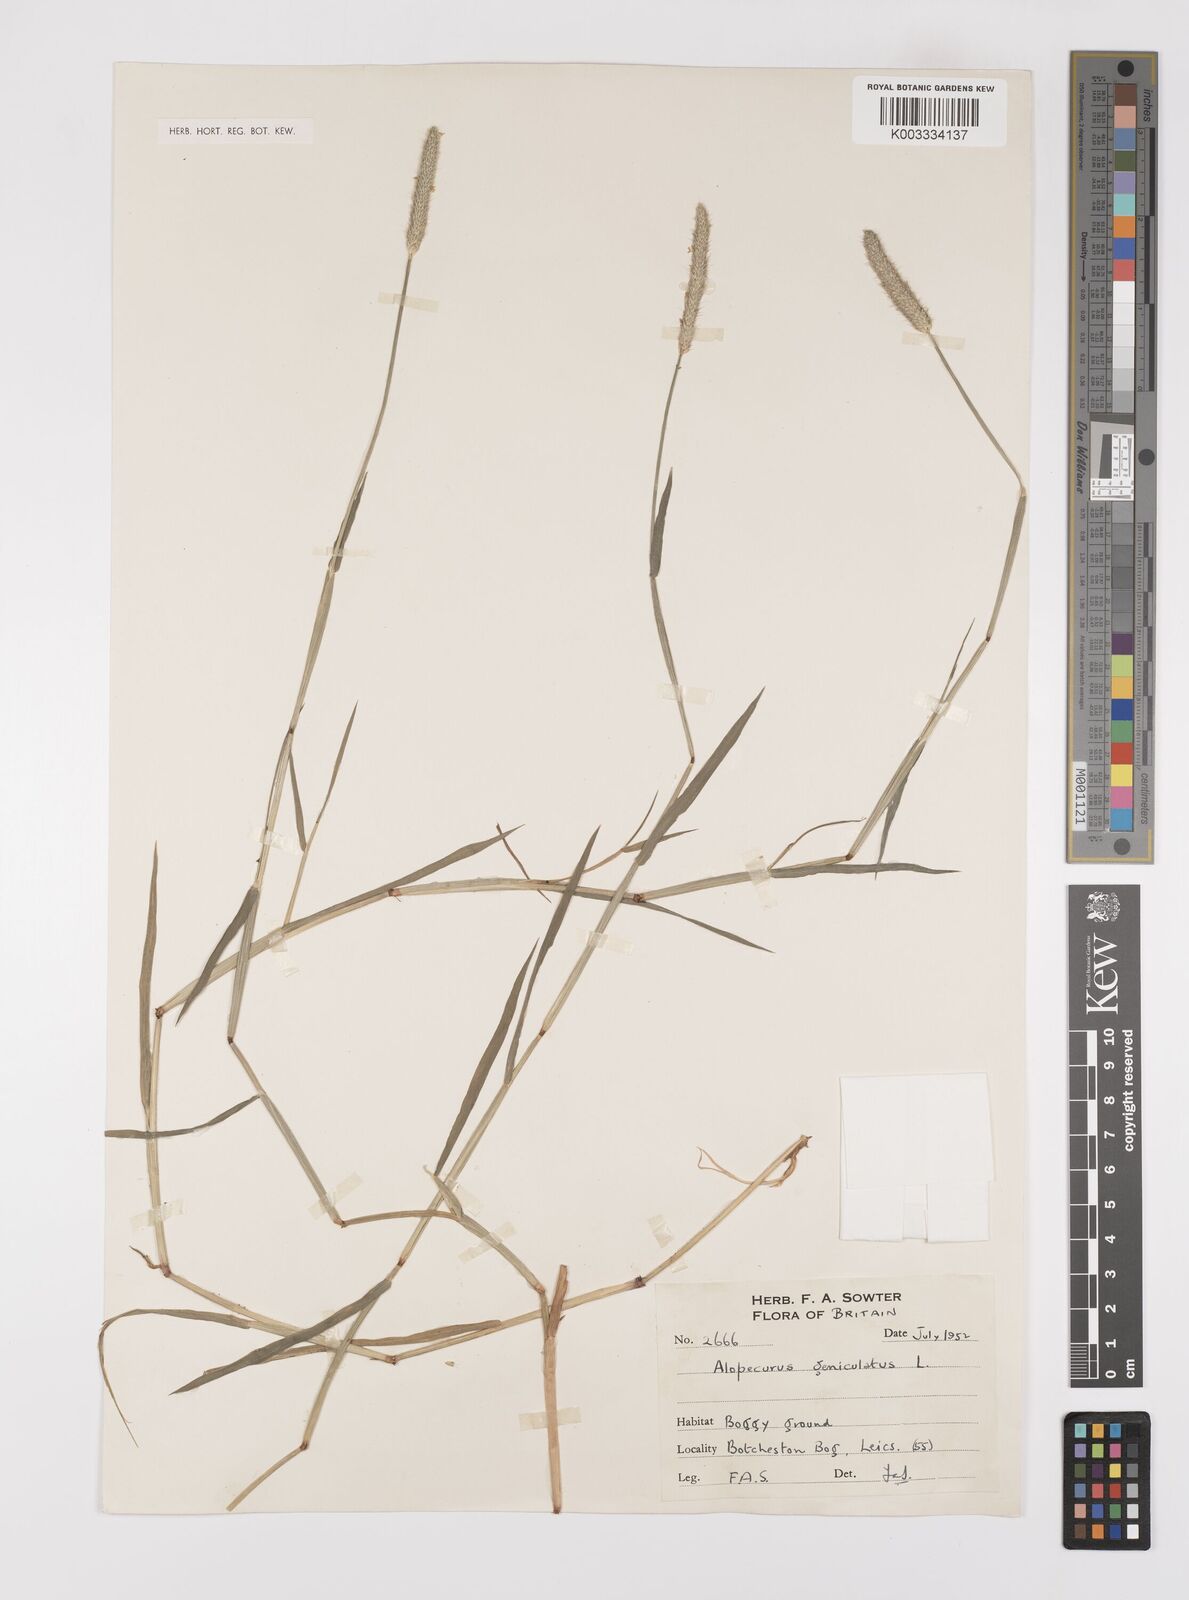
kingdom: Plantae
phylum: Tracheophyta
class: Liliopsida
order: Poales
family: Poaceae
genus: Alopecurus
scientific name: Alopecurus geniculatus
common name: Water foxtail
